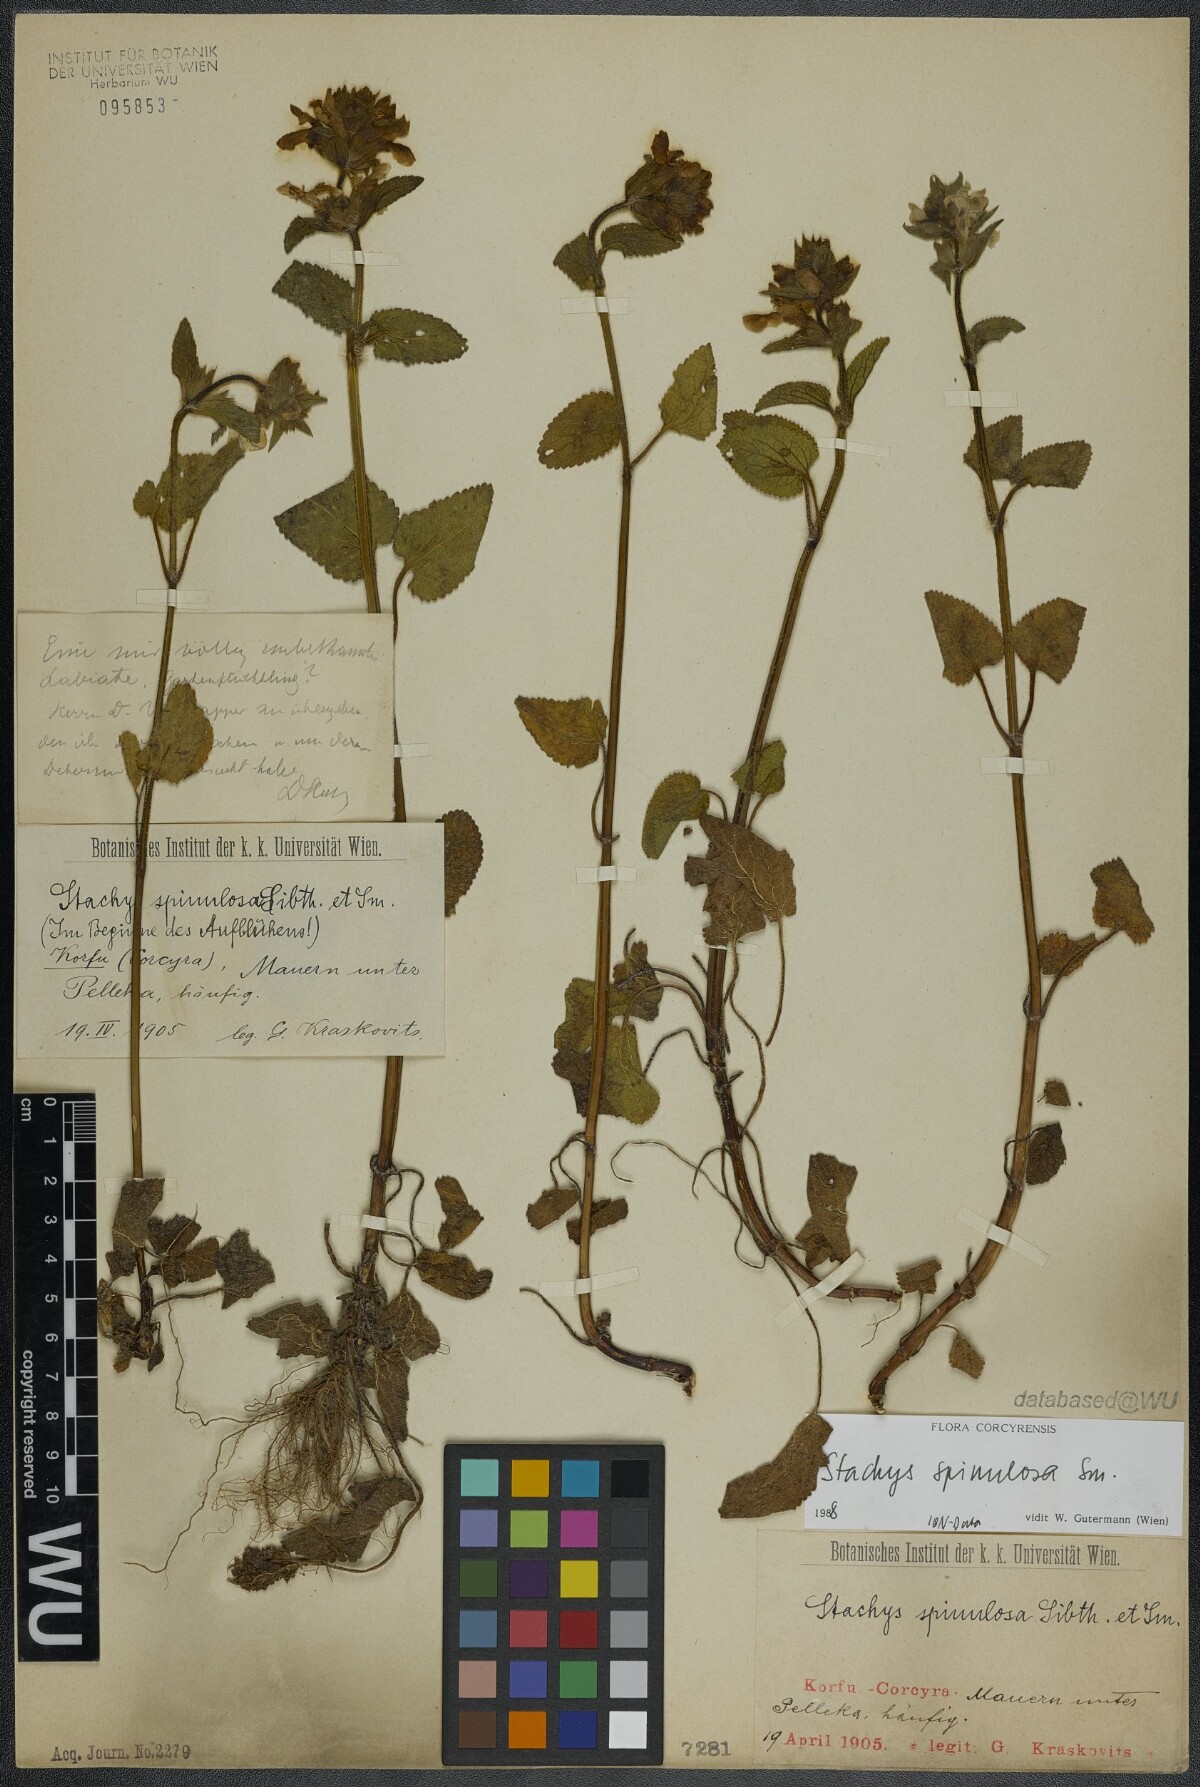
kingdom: Plantae
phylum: Tracheophyta
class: Magnoliopsida
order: Lamiales
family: Lamiaceae
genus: Stachys
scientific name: Stachys spinulosa
